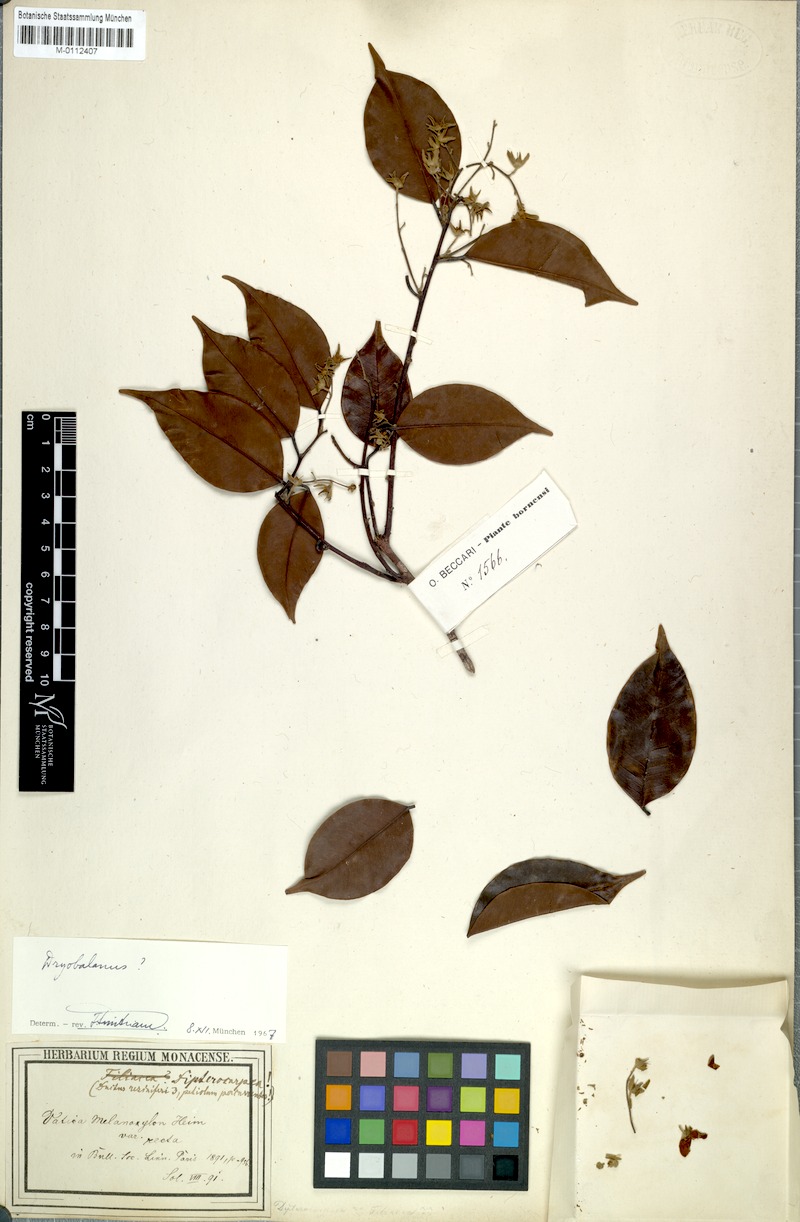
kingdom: Plantae
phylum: Tracheophyta
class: Magnoliopsida
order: Malvales
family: Dipterocarpaceae
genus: Cotylelobium
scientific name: Cotylelobium melanoxylon
